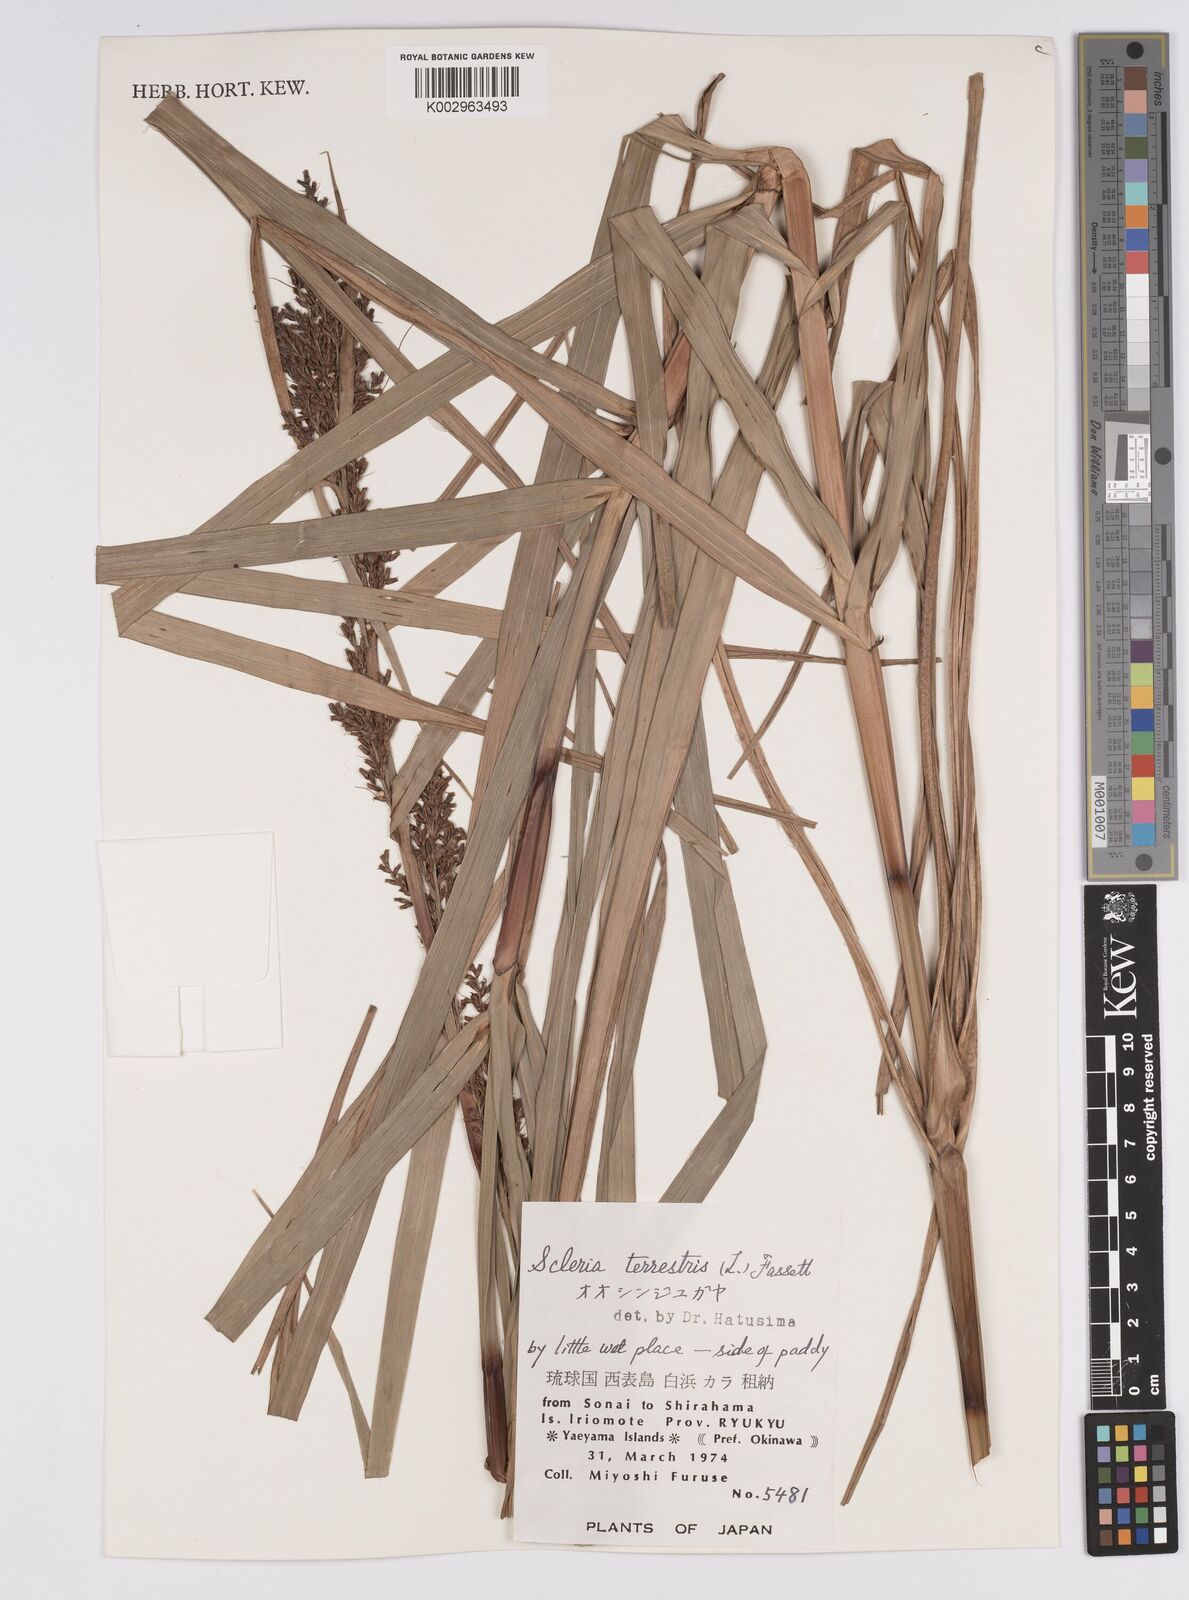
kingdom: Plantae
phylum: Tracheophyta
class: Liliopsida
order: Poales
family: Cyperaceae
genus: Scleria
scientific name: Scleria terrestris
